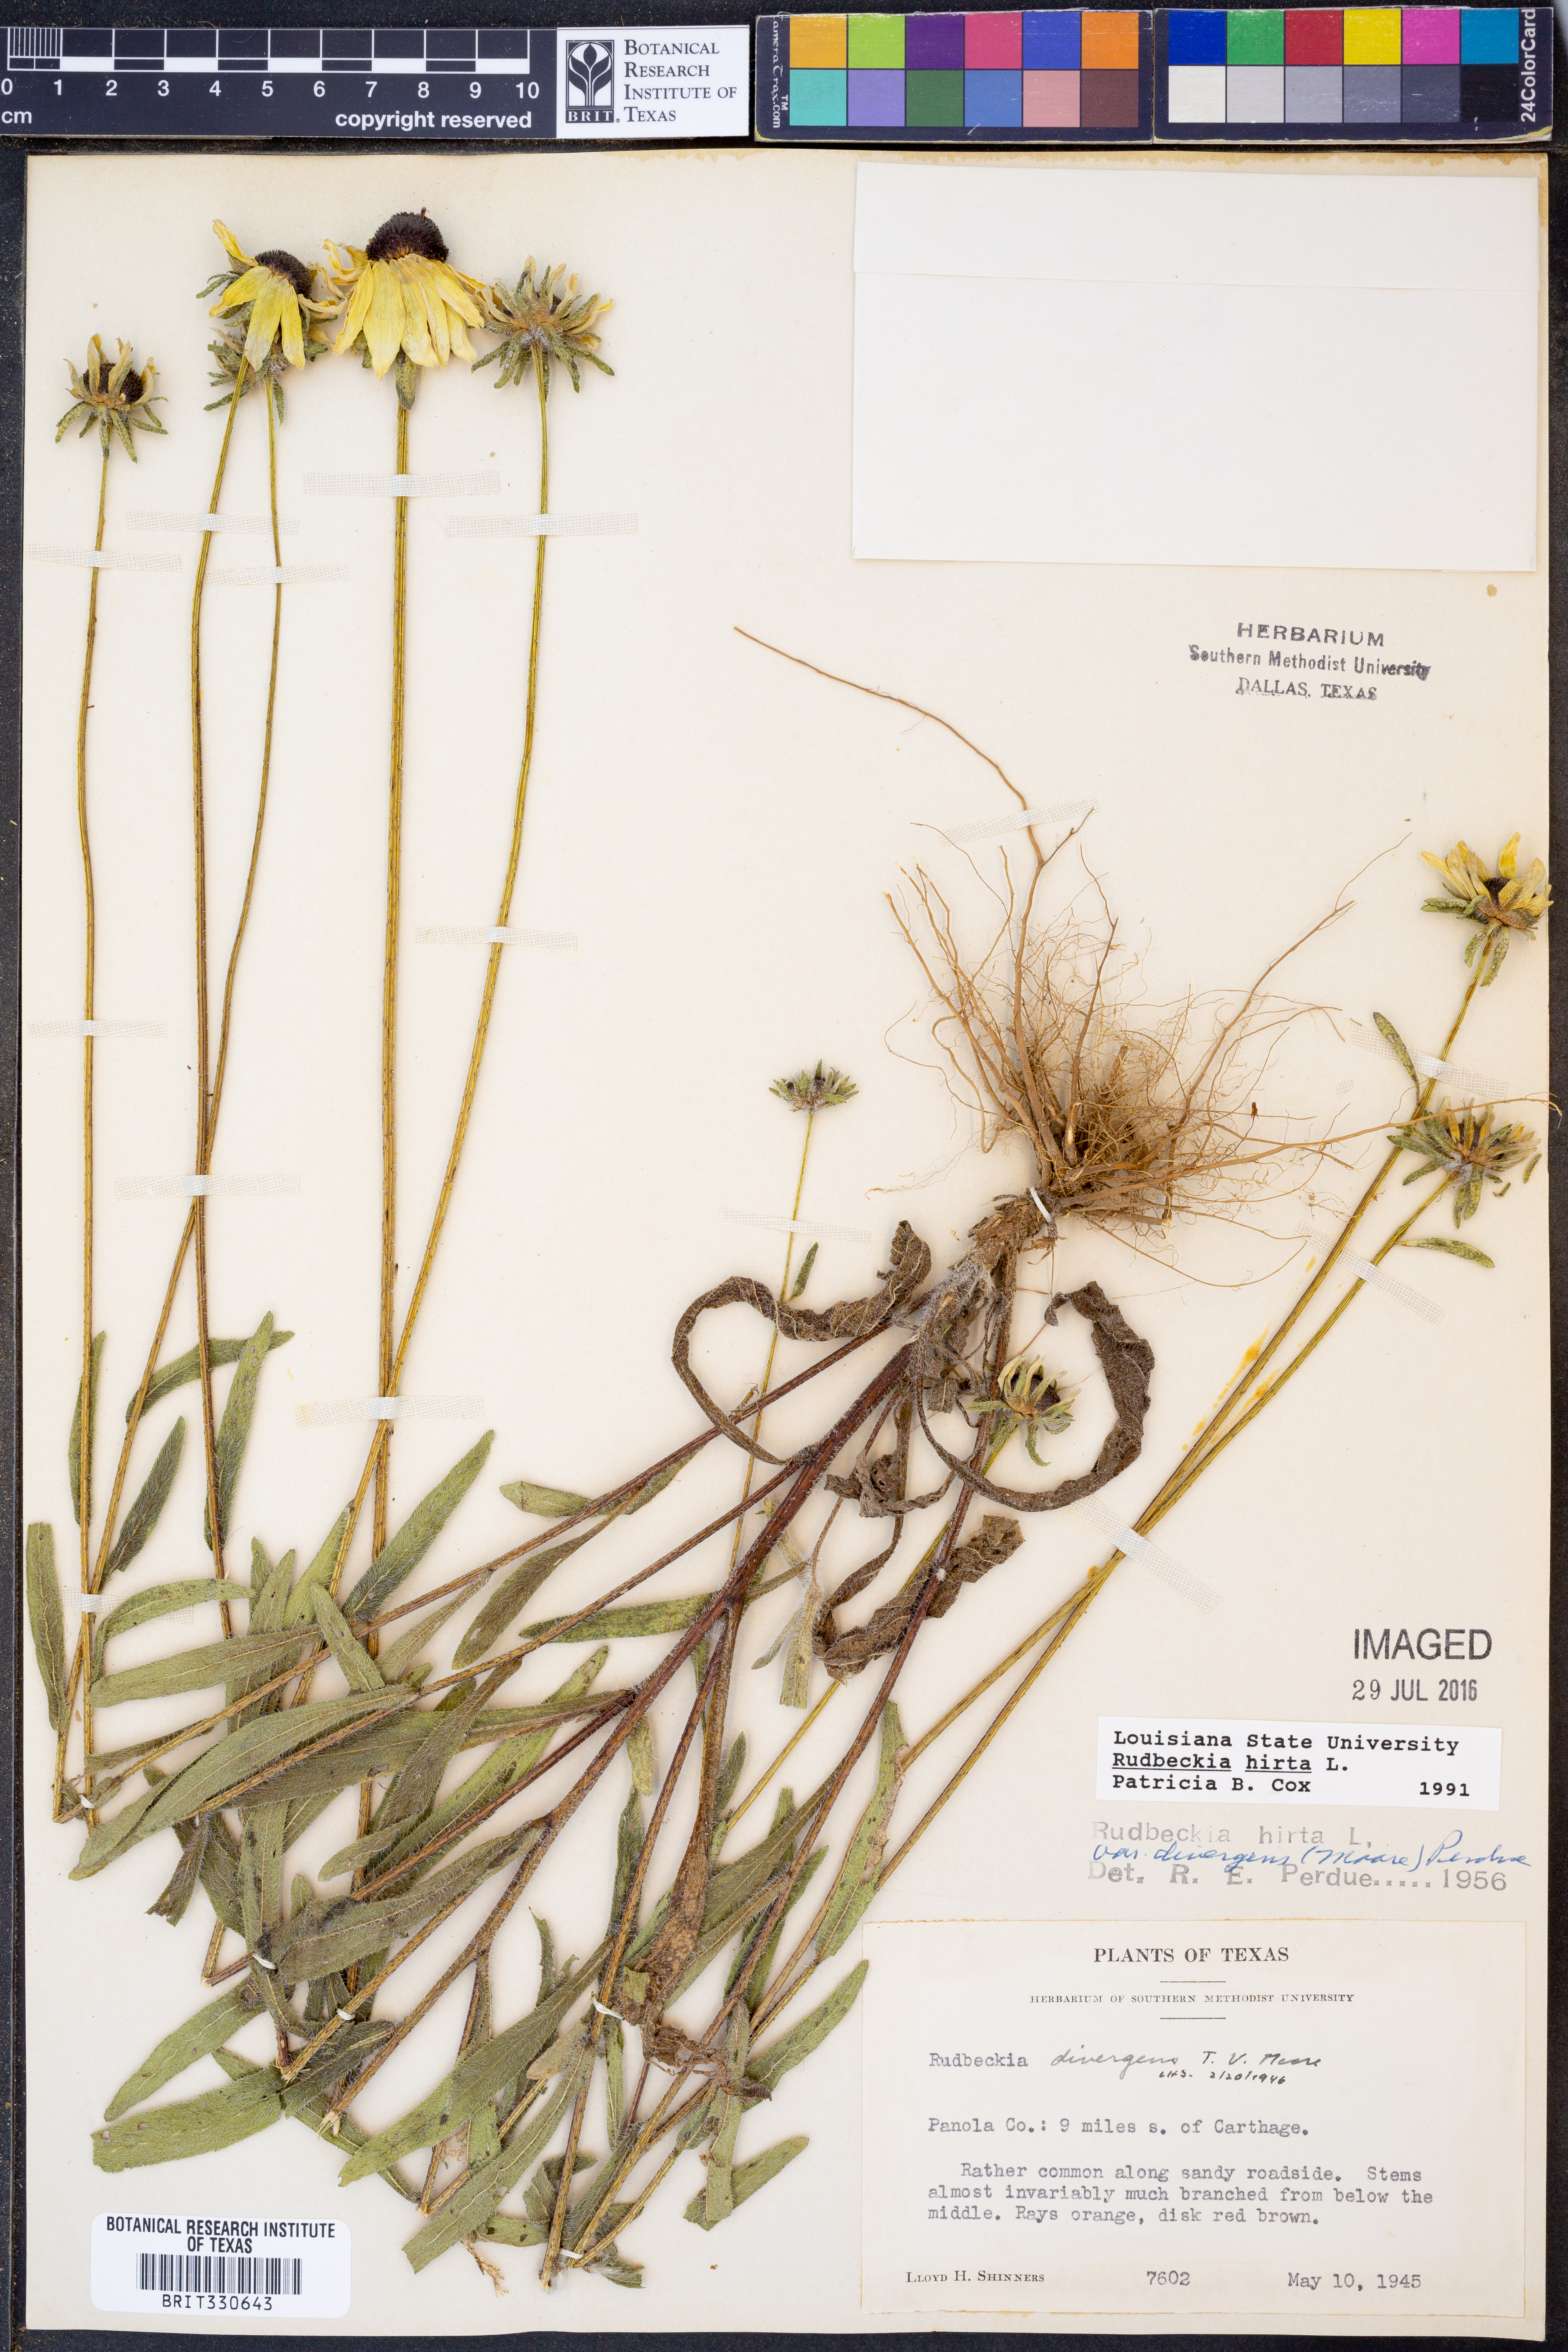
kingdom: Plantae
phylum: Tracheophyta
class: Magnoliopsida
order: Asterales
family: Asteraceae
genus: Rudbeckia
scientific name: Rudbeckia hirta
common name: Black-eyed-susan
